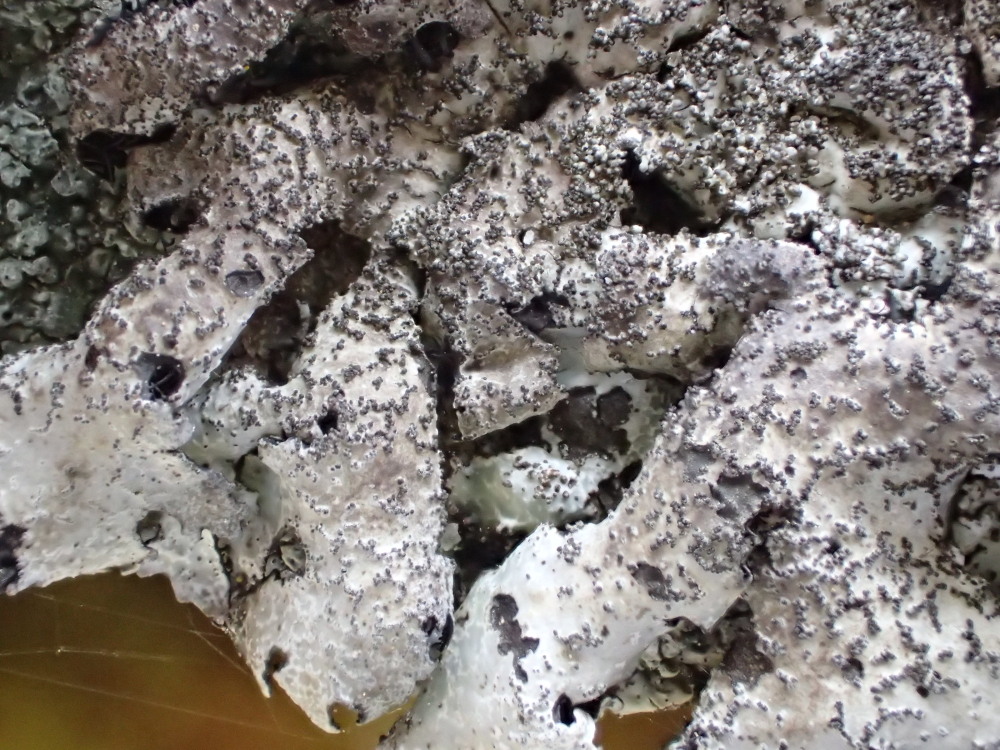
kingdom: Fungi
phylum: Ascomycota
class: Lecanoromycetes
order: Lecanorales
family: Parmeliaceae
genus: Parmelia
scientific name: Parmelia saxatilis
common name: farve-skållav
